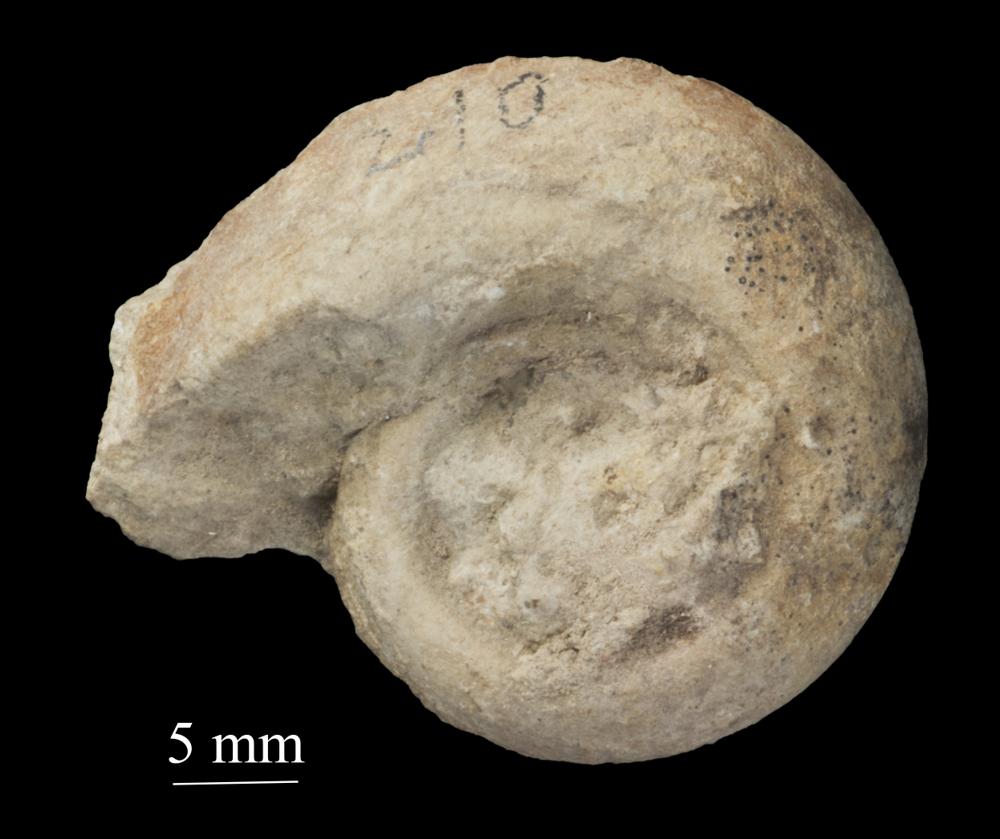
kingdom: Animalia
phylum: Mollusca
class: Gastropoda
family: Bellerophontidae
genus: Bellerophon
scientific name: Bellerophon contortus
